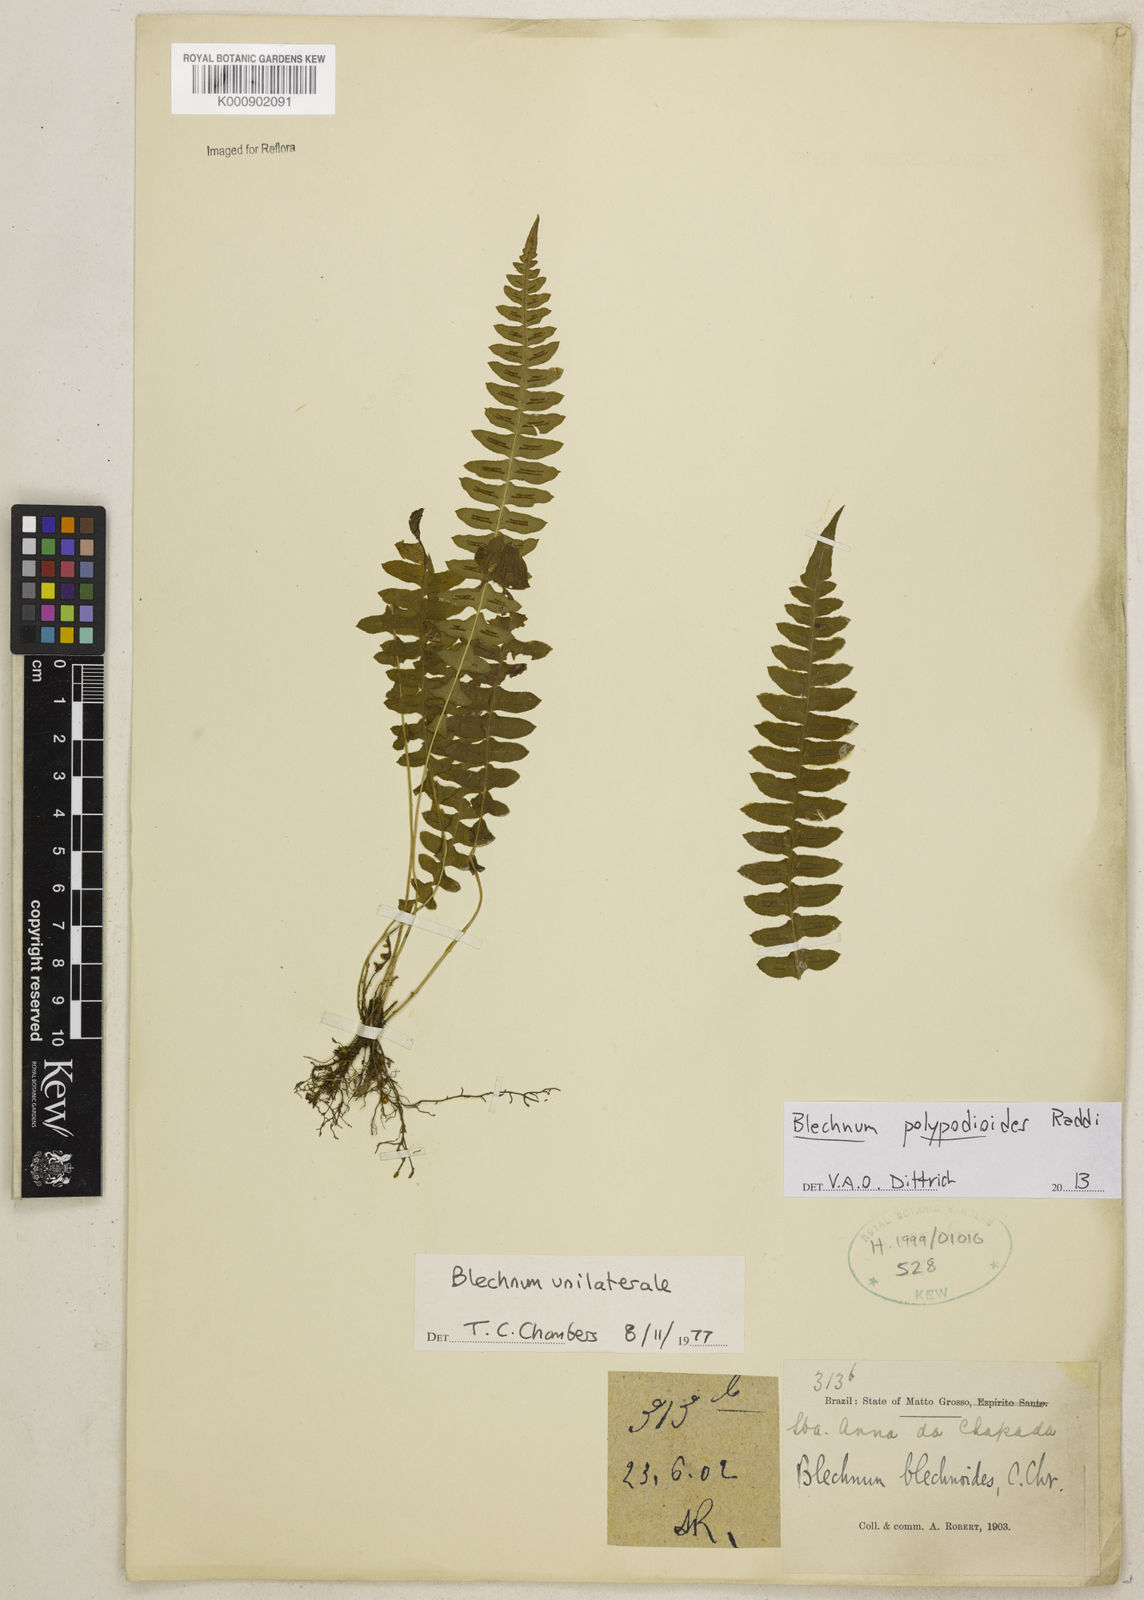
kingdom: Plantae
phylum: Tracheophyta
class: Polypodiopsida
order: Polypodiales
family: Blechnaceae
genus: Blechnum
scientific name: Blechnum polypodioides
